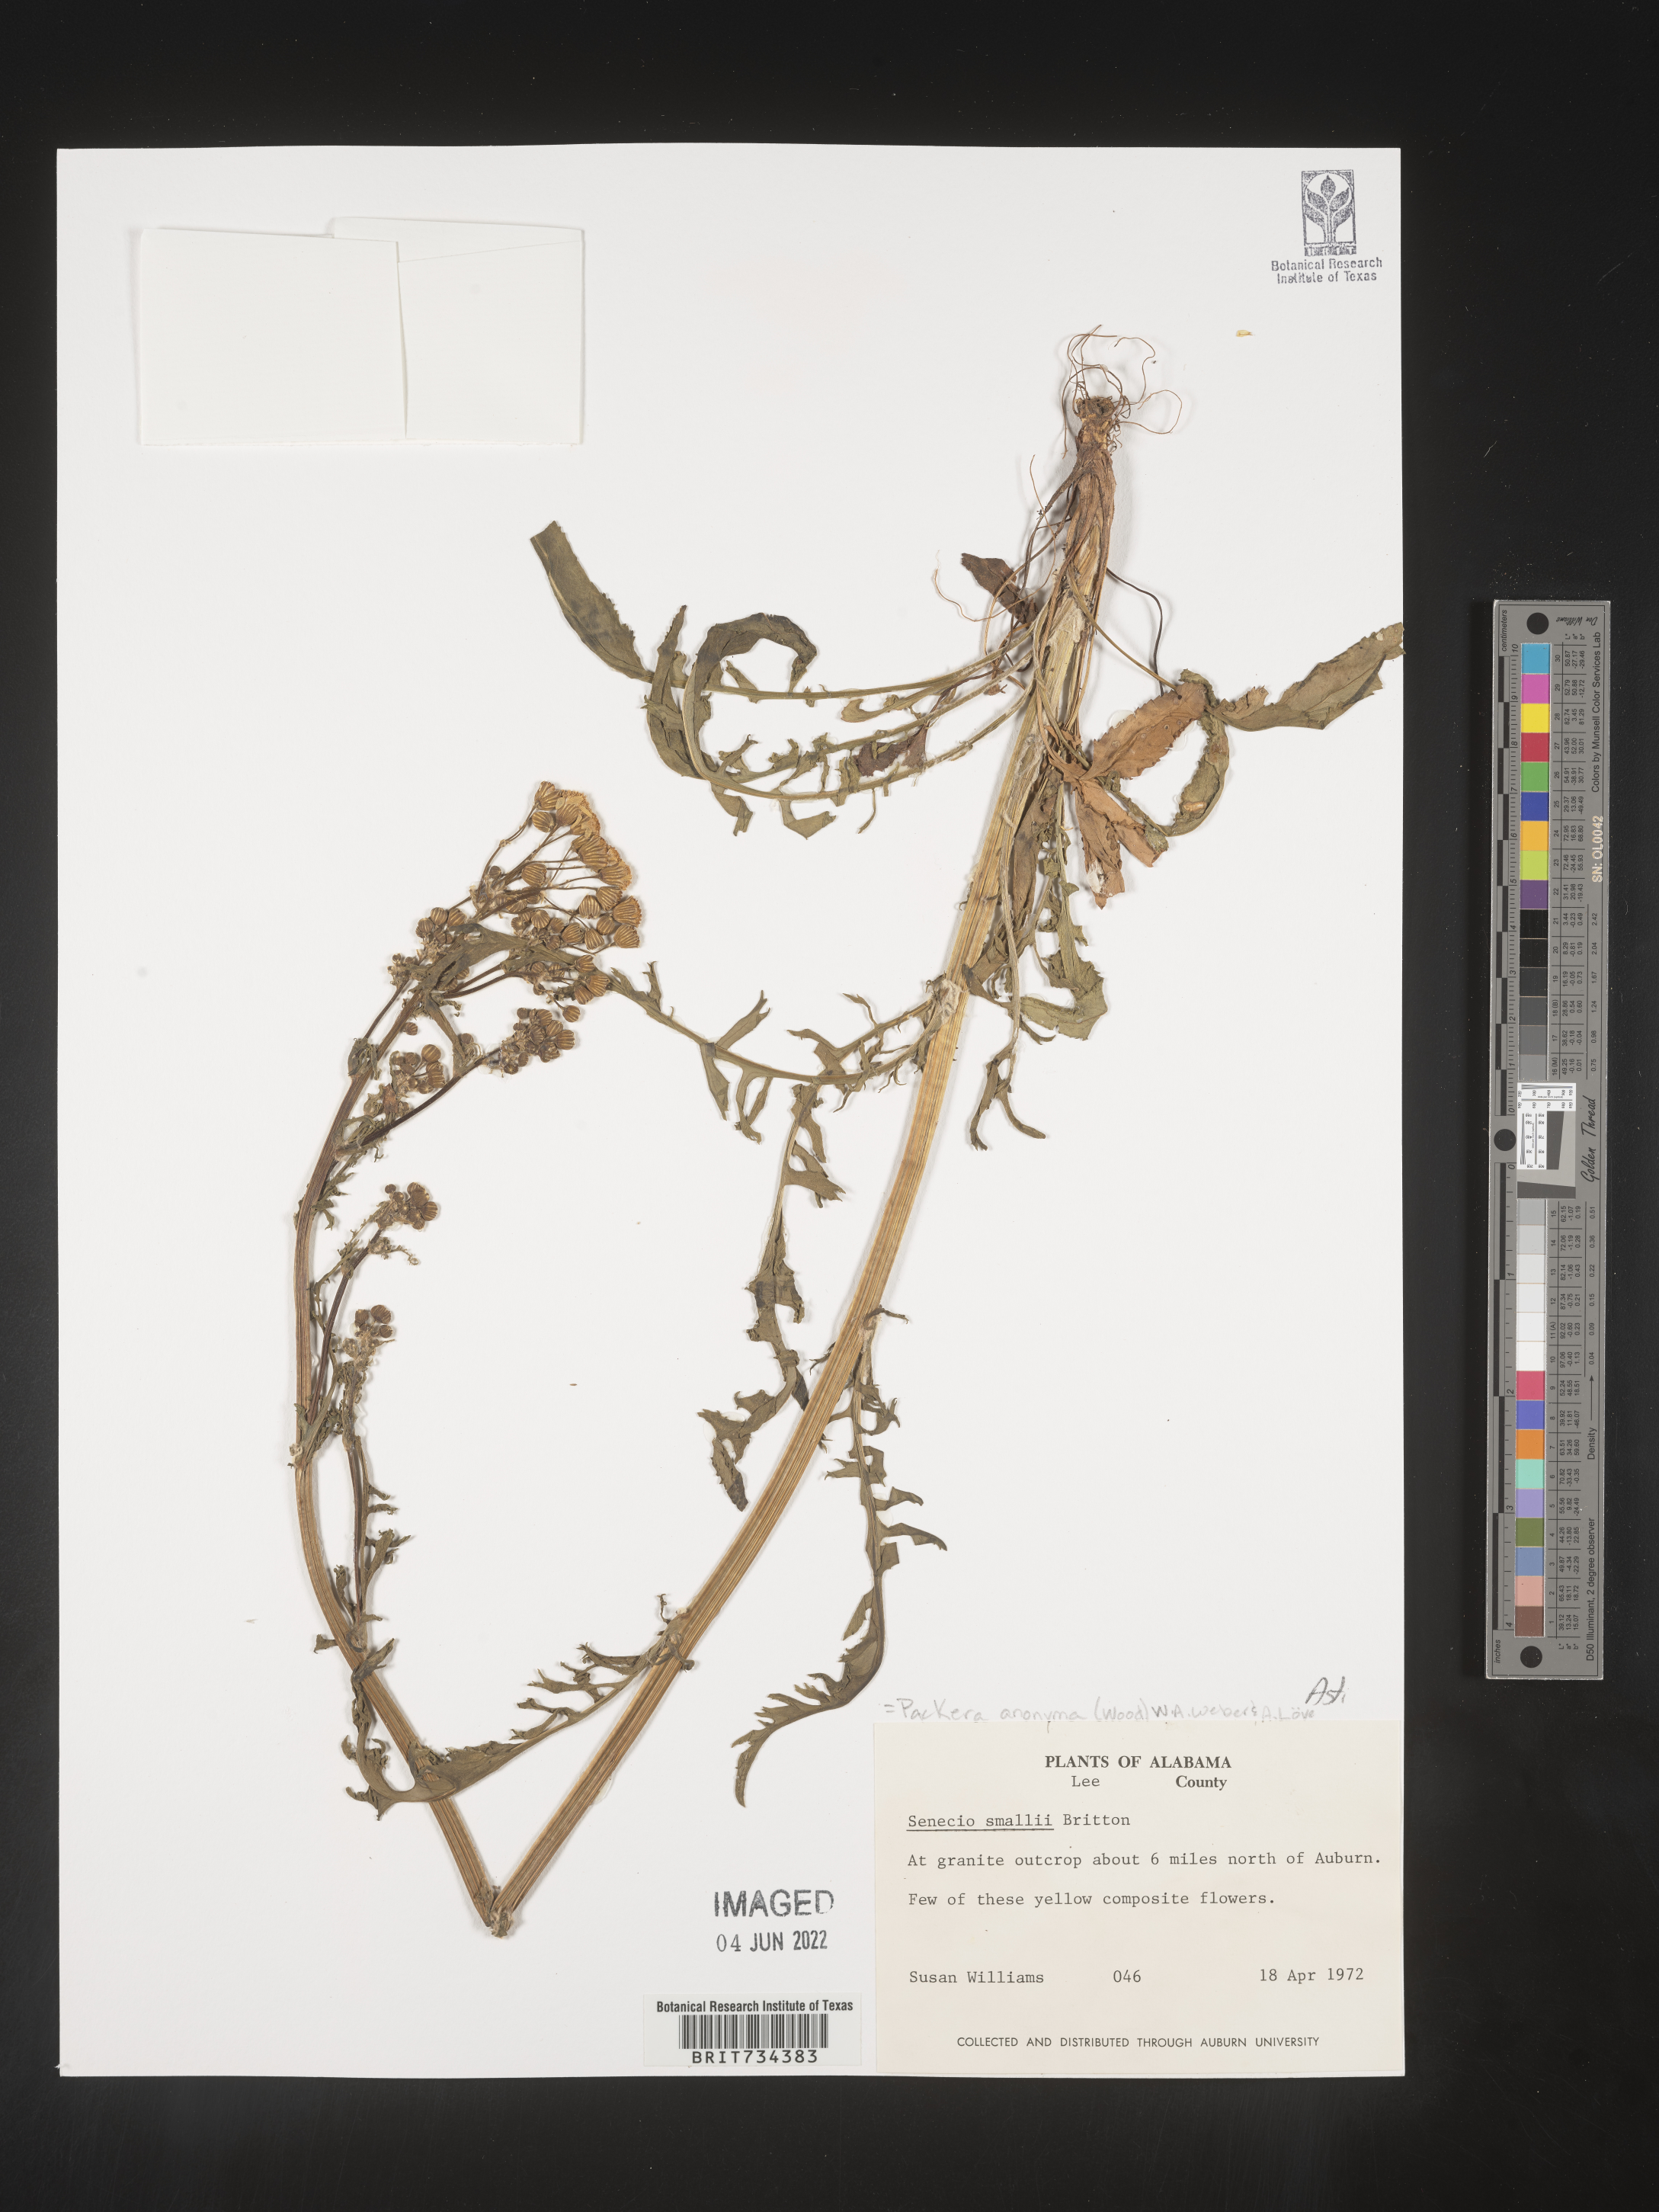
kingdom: Plantae
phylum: Tracheophyta
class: Magnoliopsida
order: Asterales
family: Asteraceae
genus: Packera
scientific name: Packera anonyma
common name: Small ragwort
